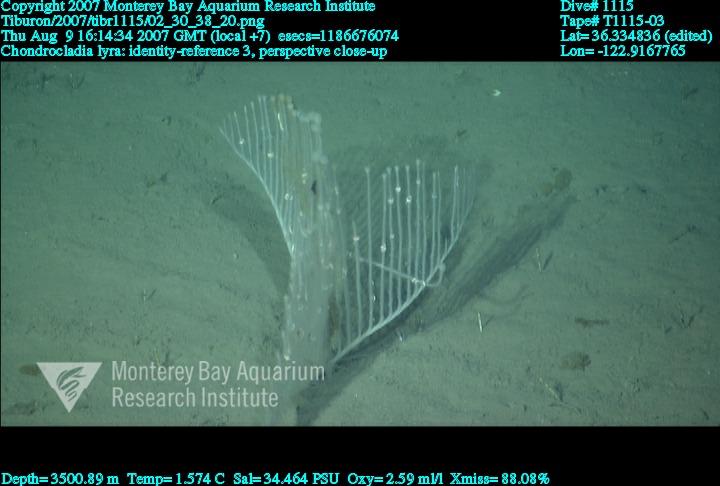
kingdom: Animalia
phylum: Porifera
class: Demospongiae
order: Poecilosclerida
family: Cladorhizidae
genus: Chondrocladia
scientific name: Chondrocladia lyra
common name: Harp sponge
